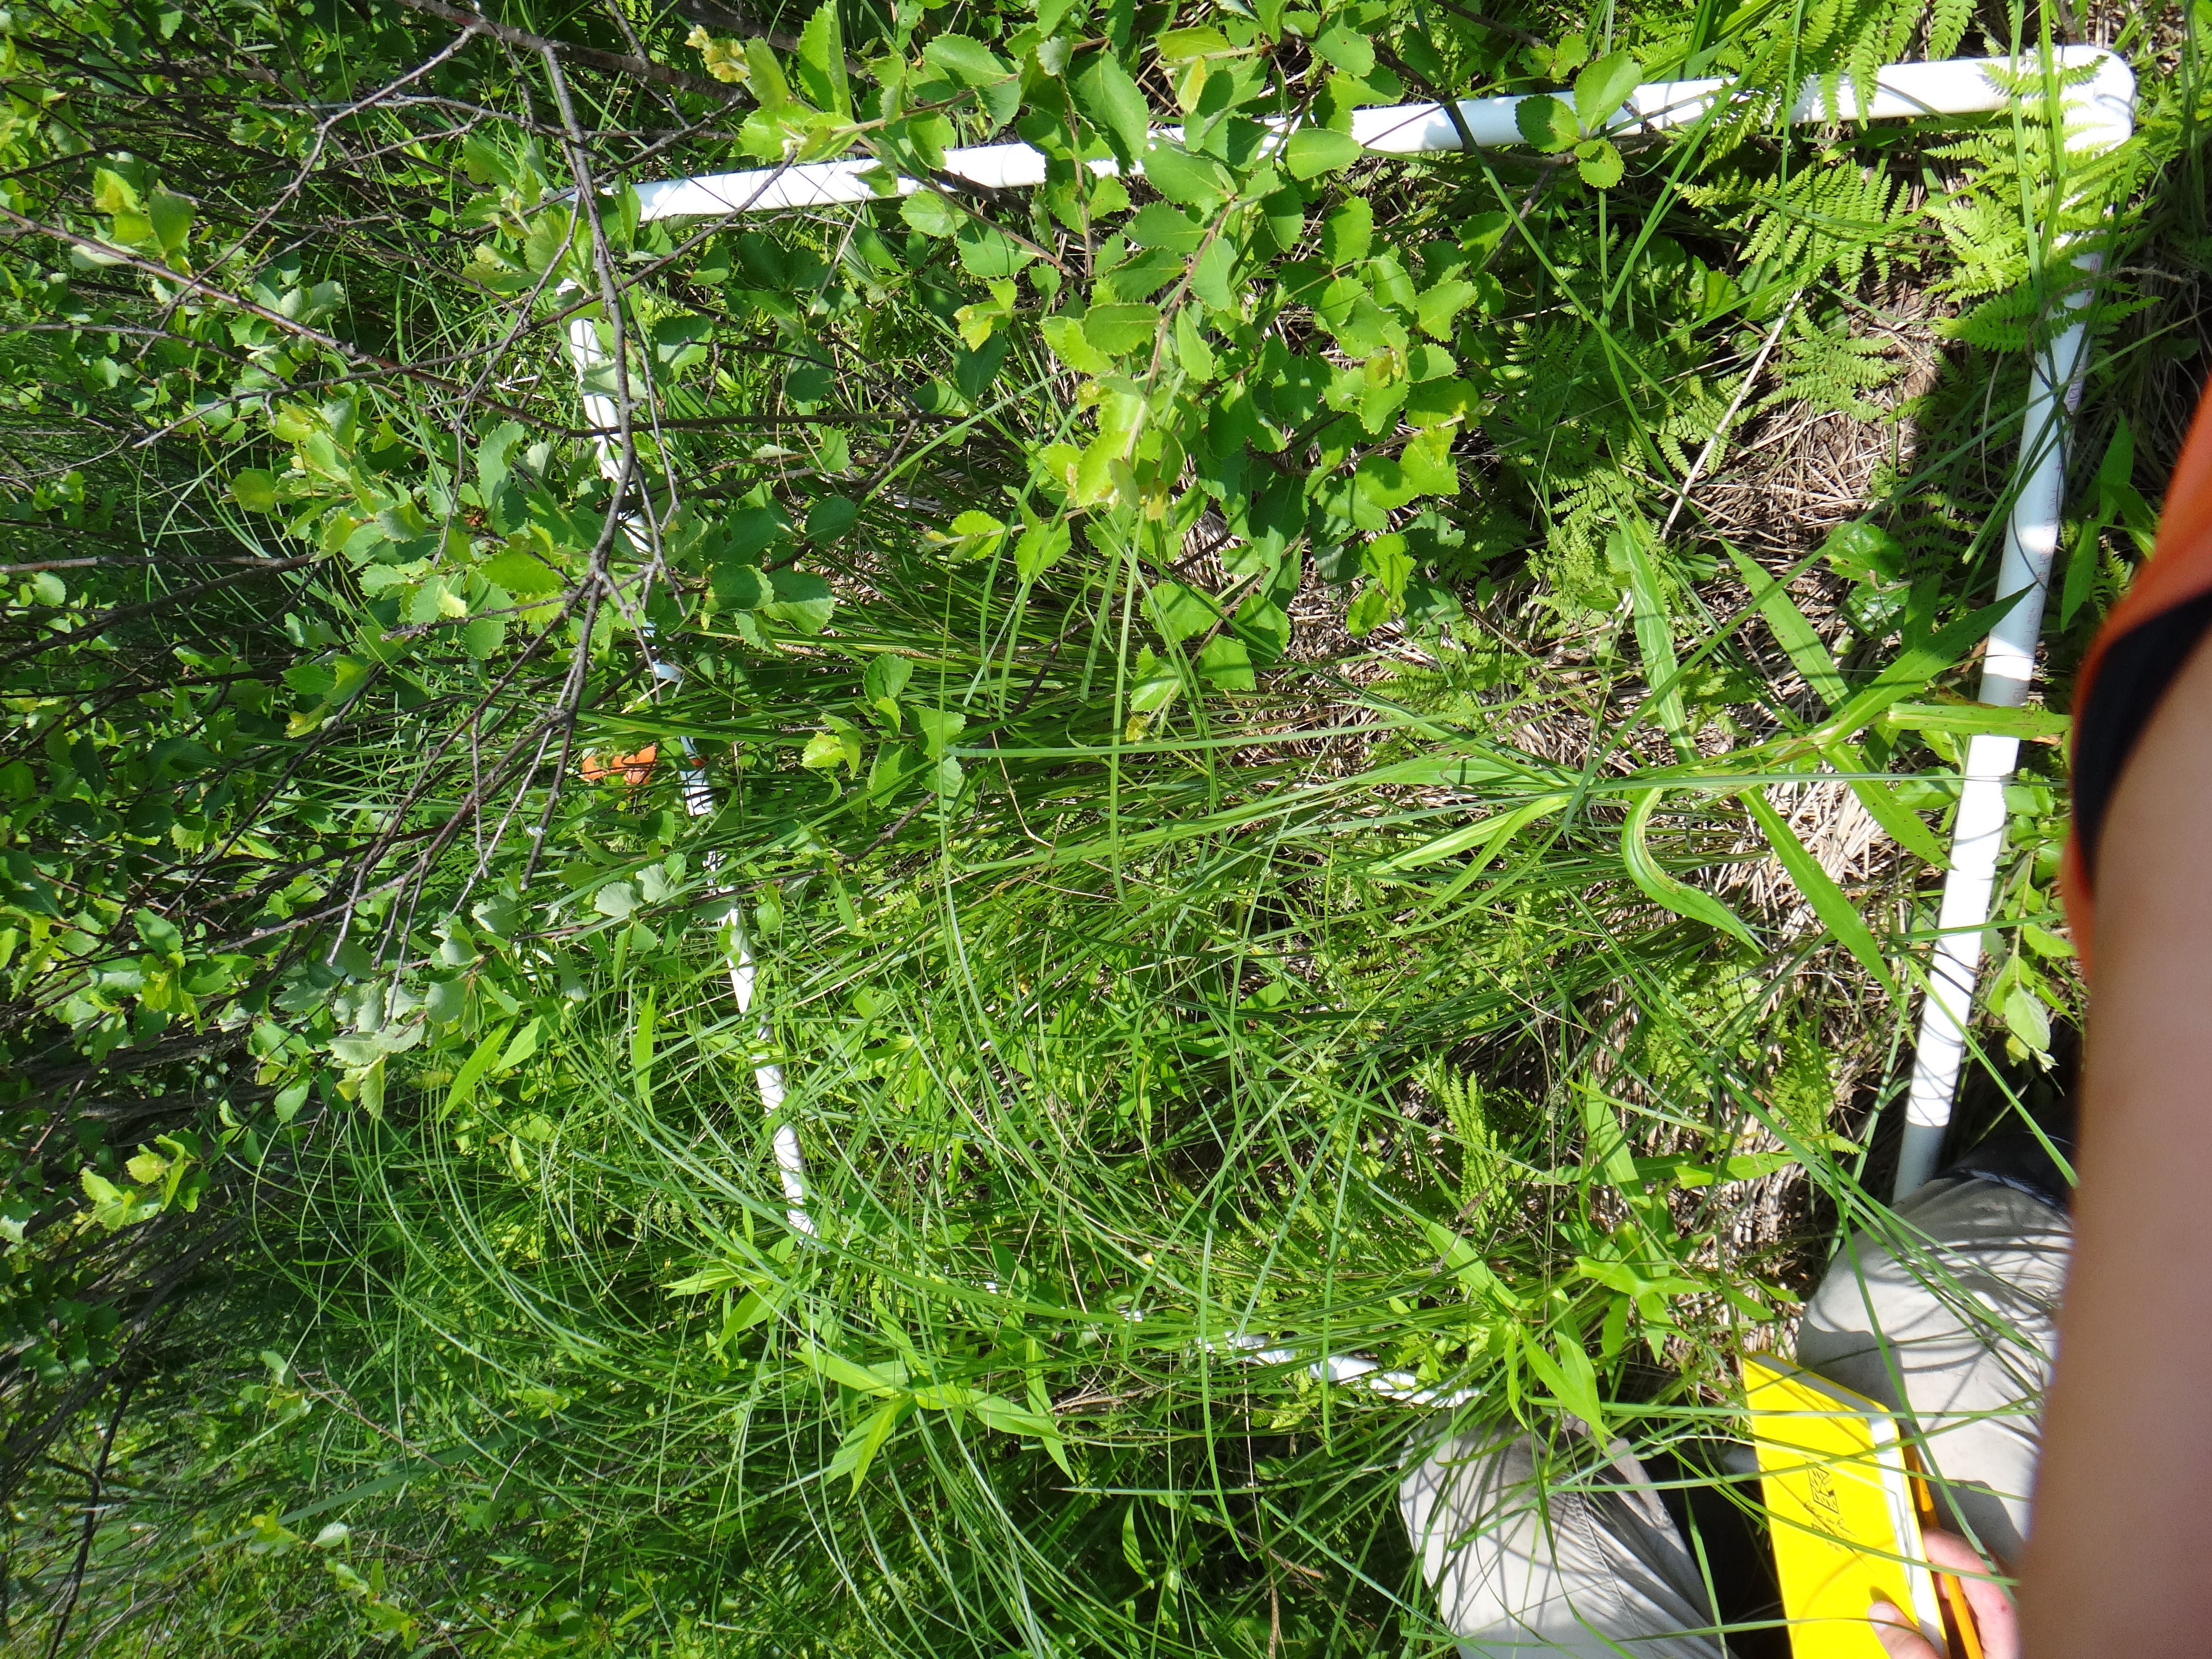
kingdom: Plantae
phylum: Tracheophyta
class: Polypodiopsida
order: Polypodiales
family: Thelypteridaceae
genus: Thelypteris
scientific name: Thelypteris palustris
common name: Marsh fern
